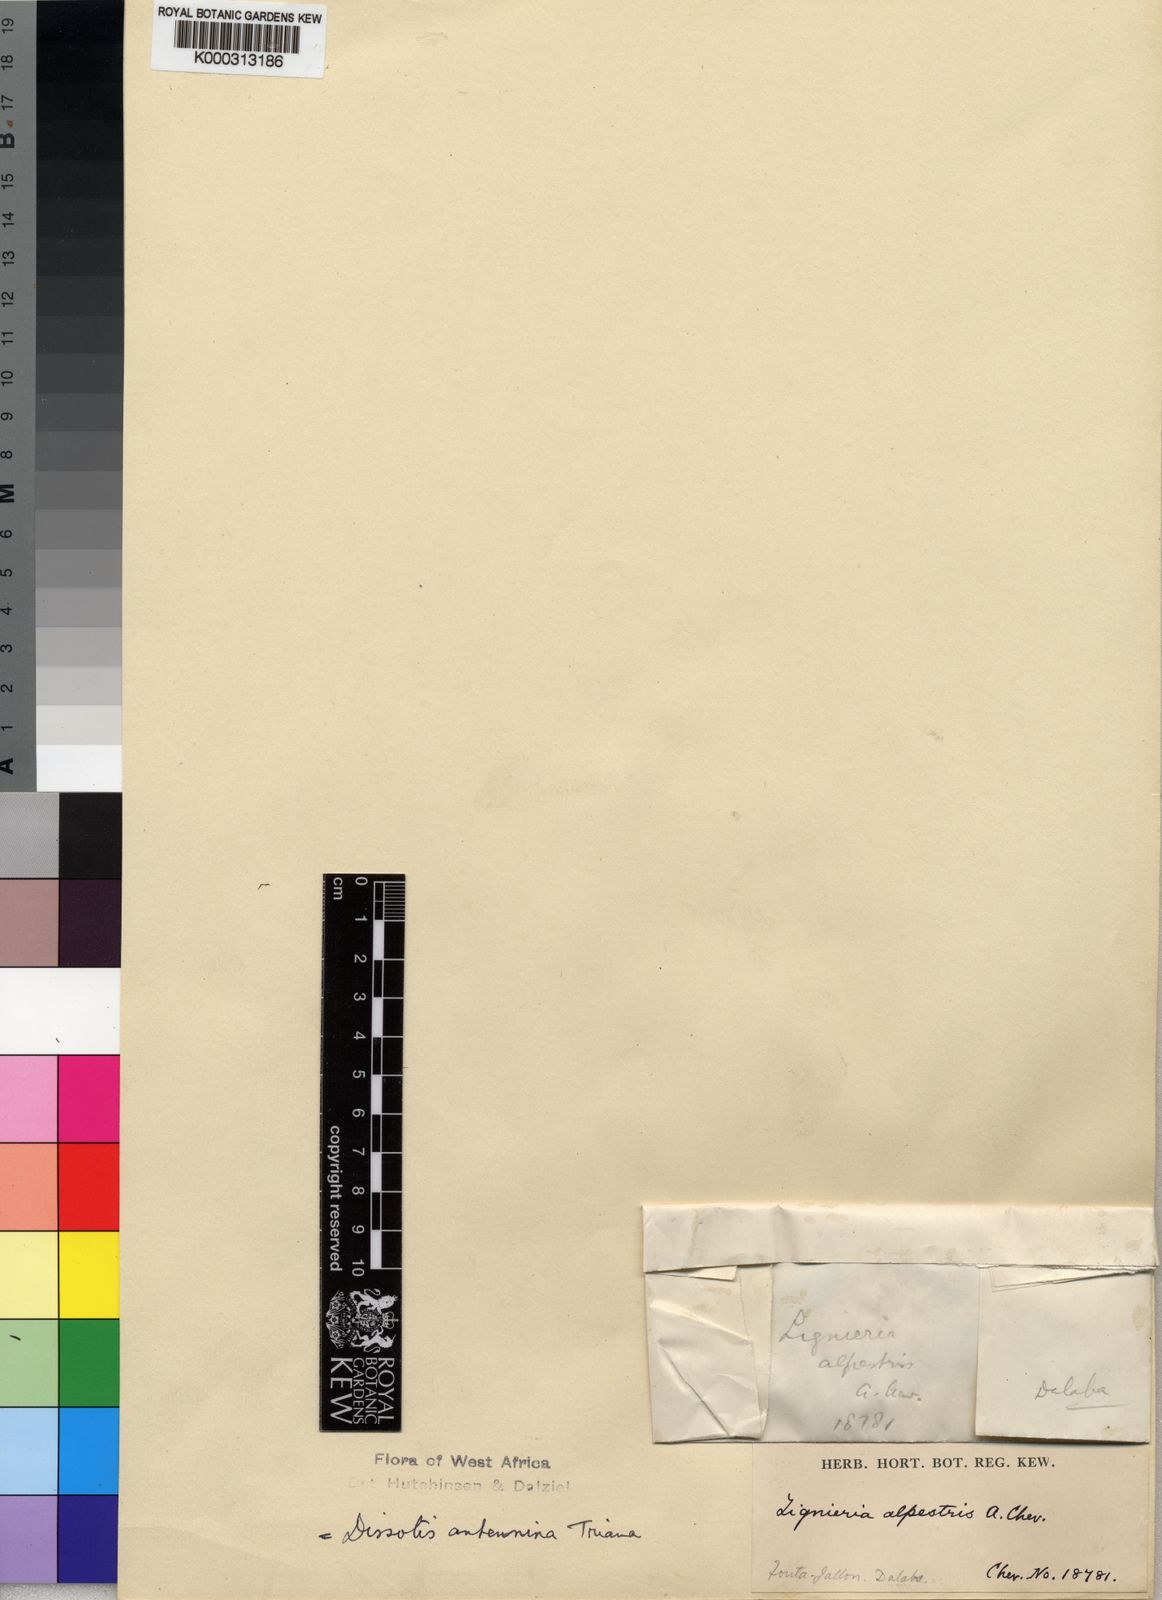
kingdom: Plantae
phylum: Tracheophyta
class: Magnoliopsida
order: Myrtales
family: Melastomataceae
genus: Guyonia
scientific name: Guyonia antennina
